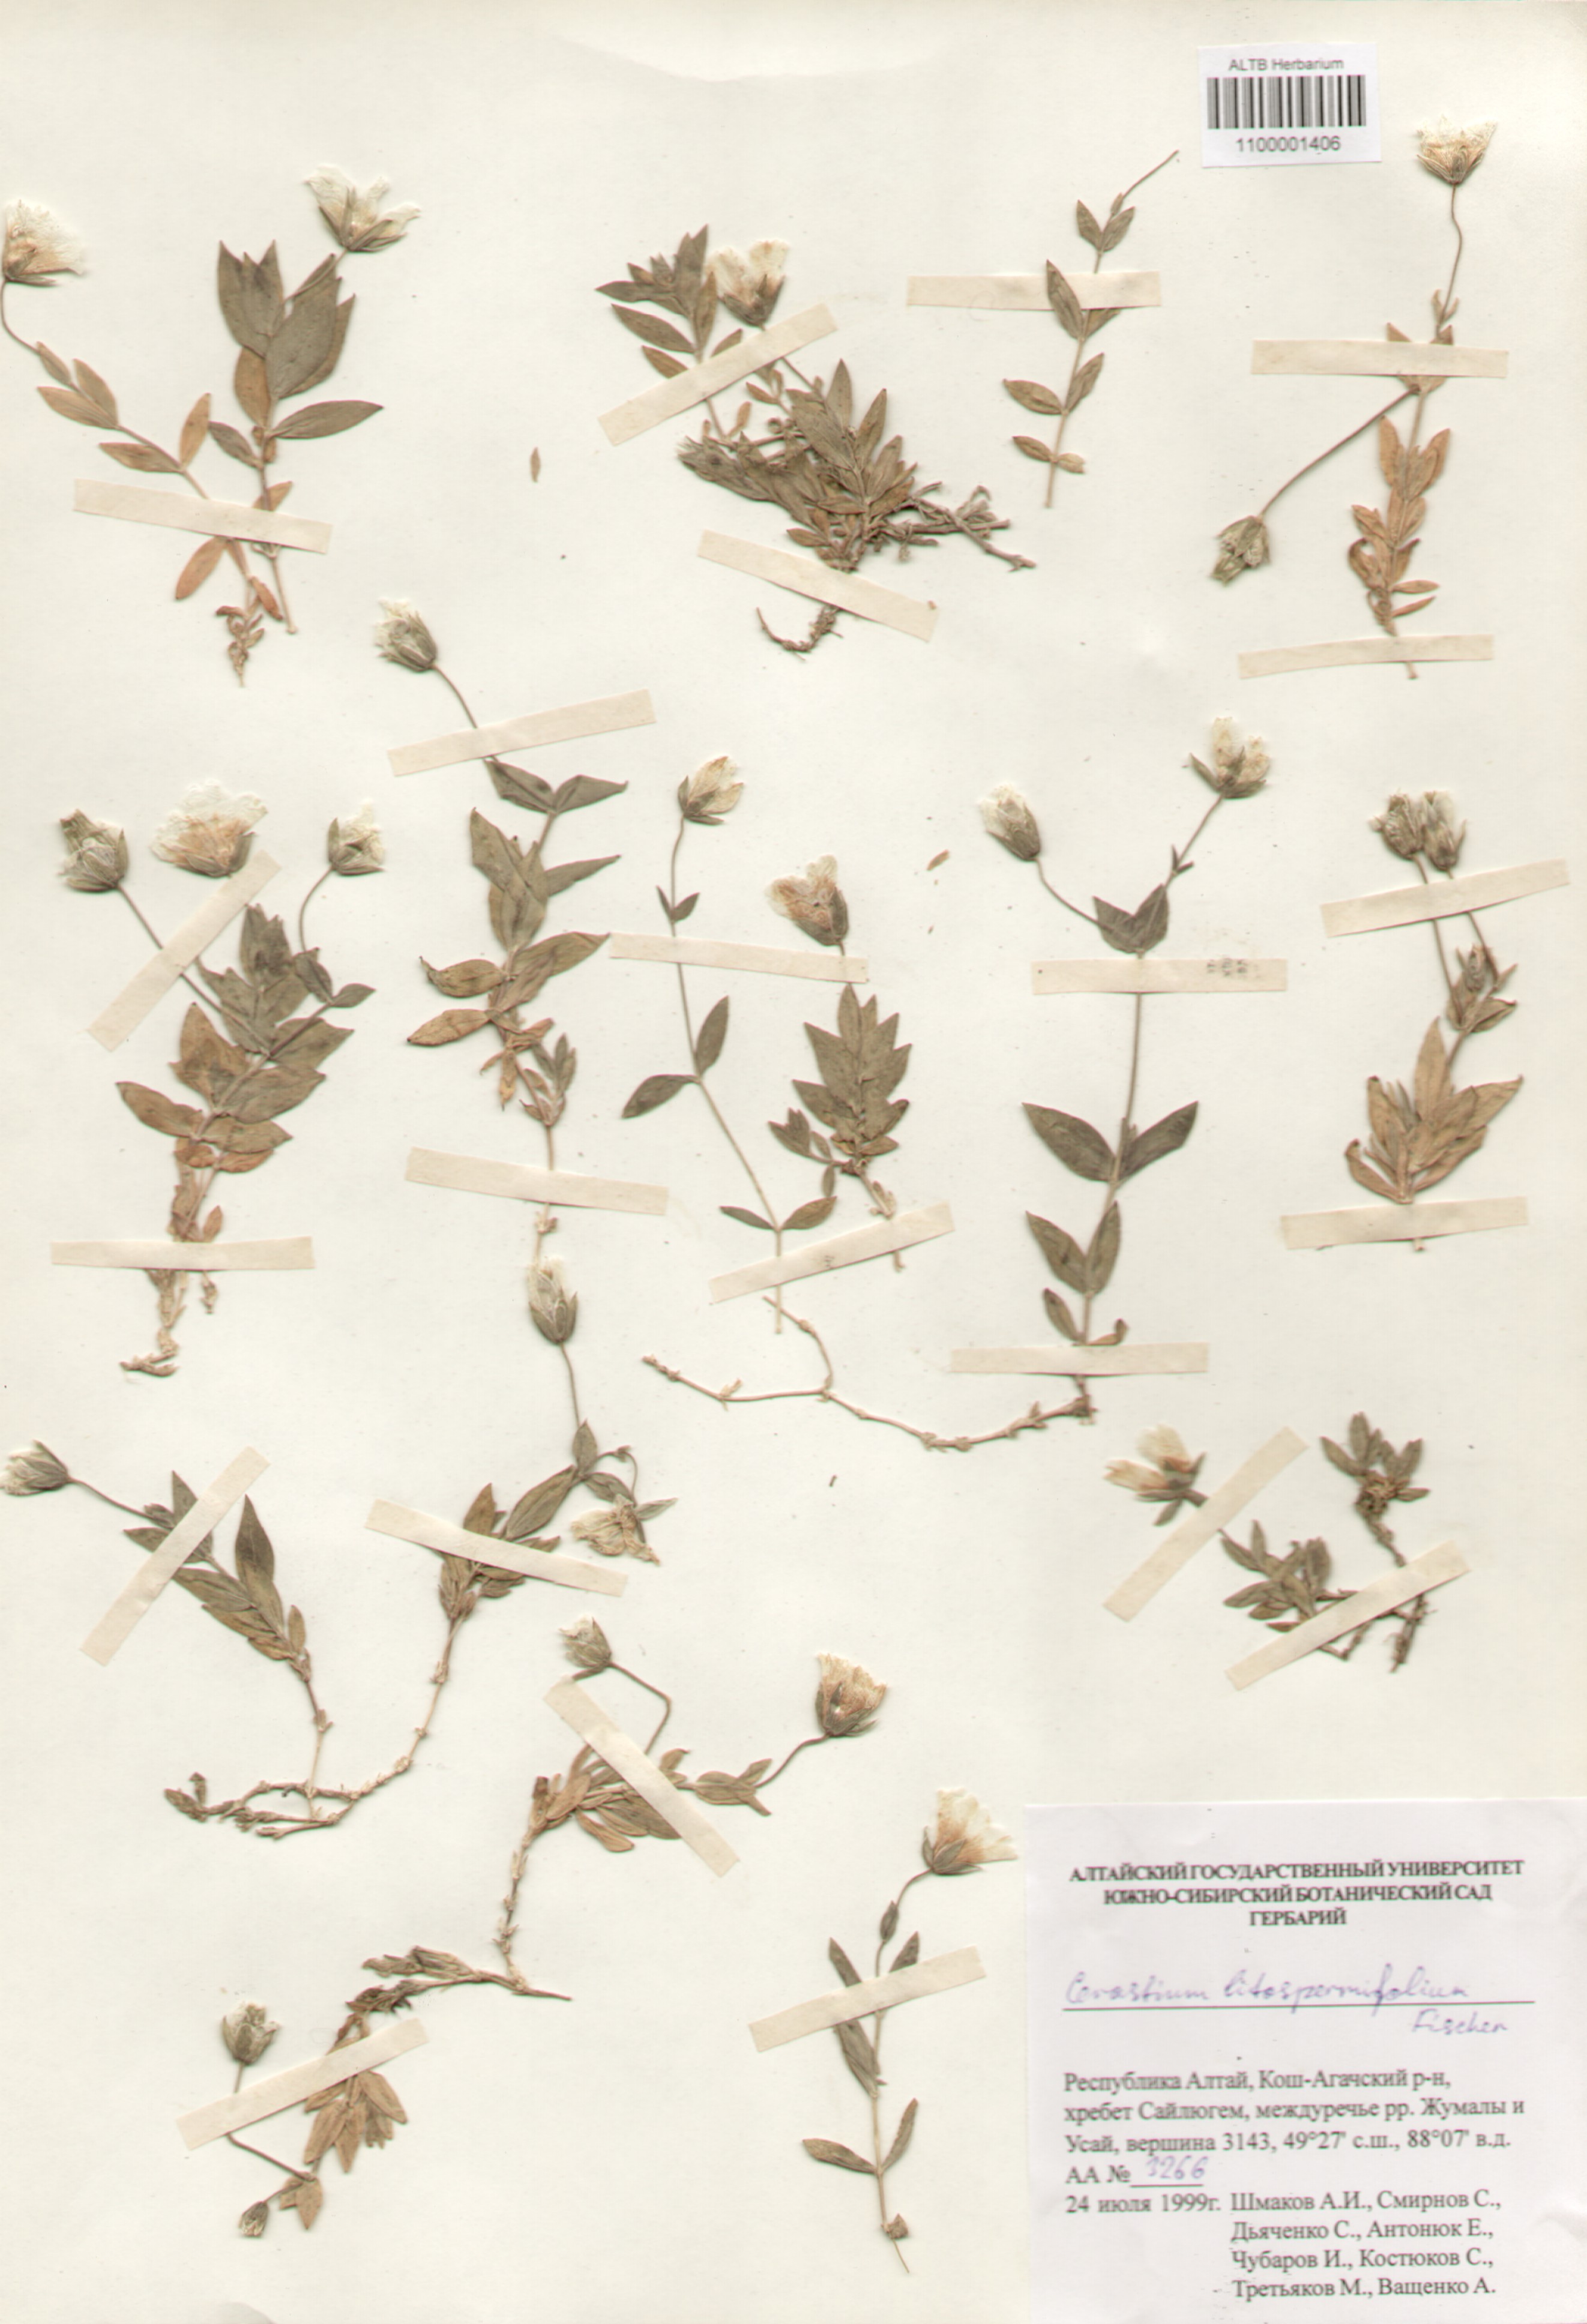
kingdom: Plantae
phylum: Tracheophyta
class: Magnoliopsida
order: Caryophyllales
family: Caryophyllaceae
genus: Cerastium
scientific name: Cerastium lithospermifolium
